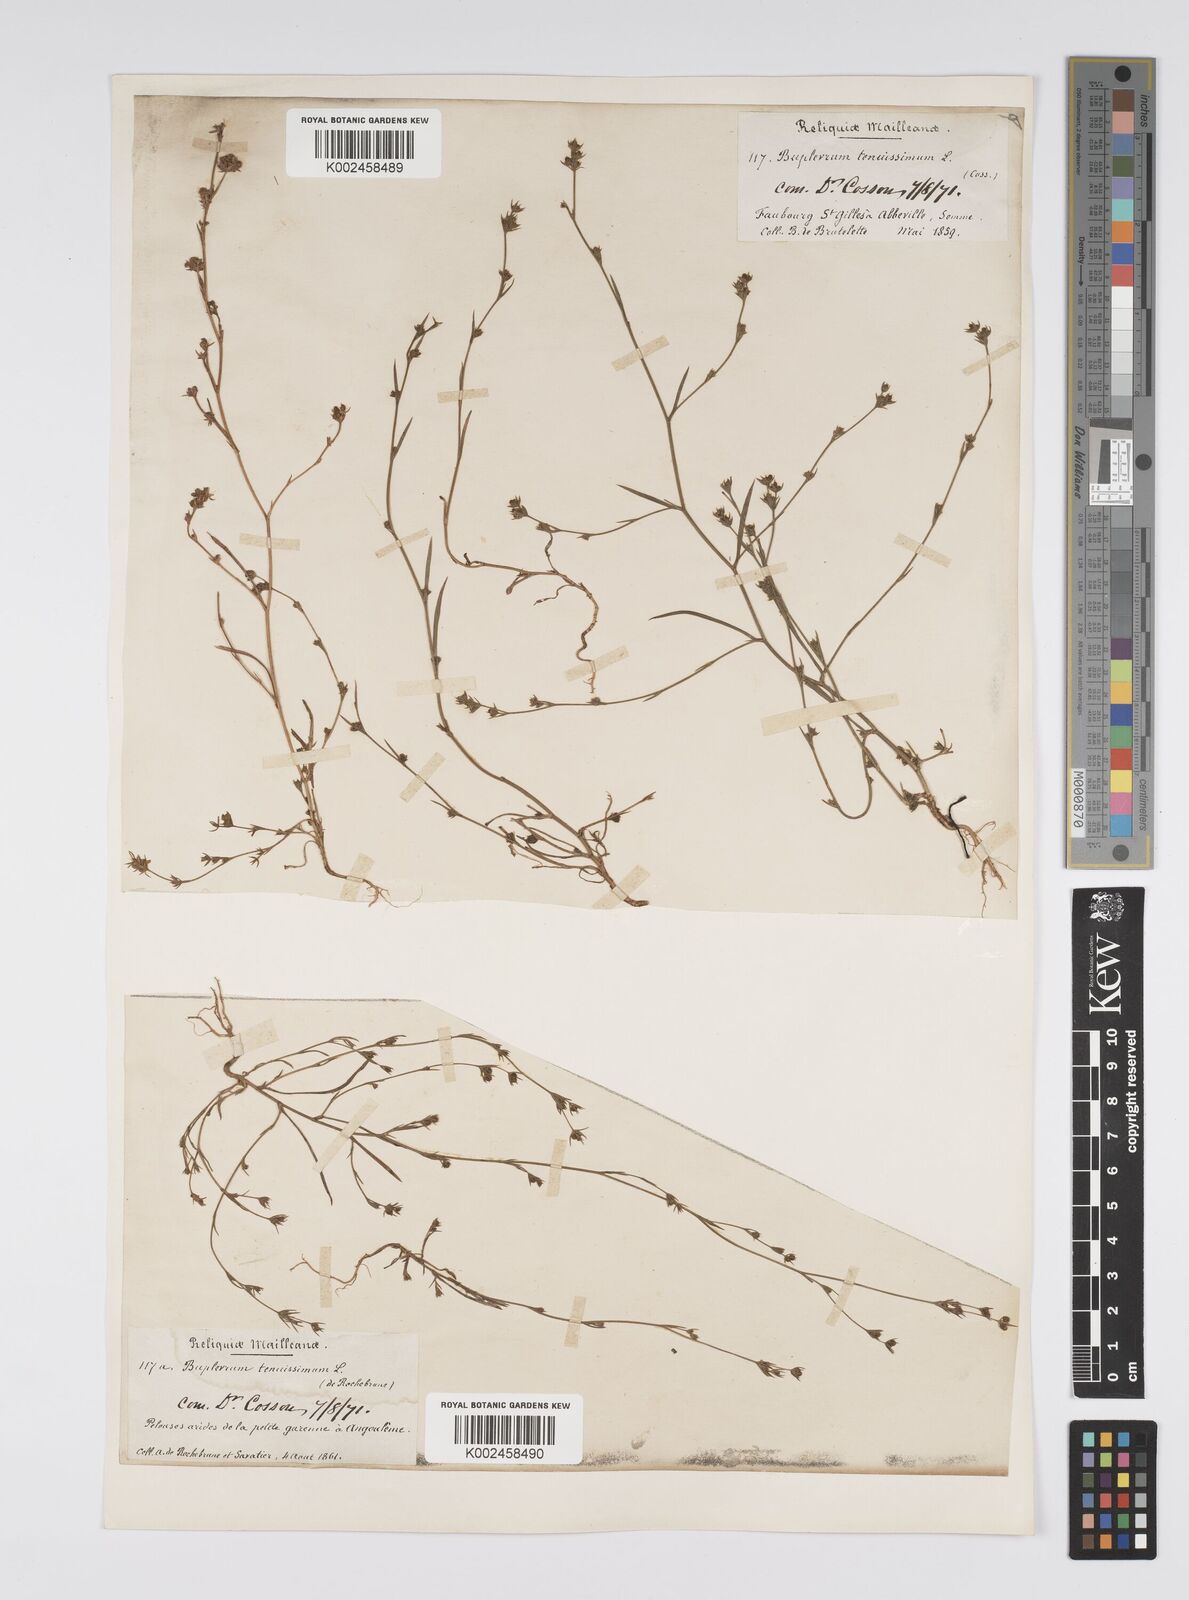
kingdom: Plantae
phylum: Tracheophyta
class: Magnoliopsida
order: Apiales
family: Apiaceae
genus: Bupleurum
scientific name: Bupleurum tenuissimum
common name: Slender hare's-ear
